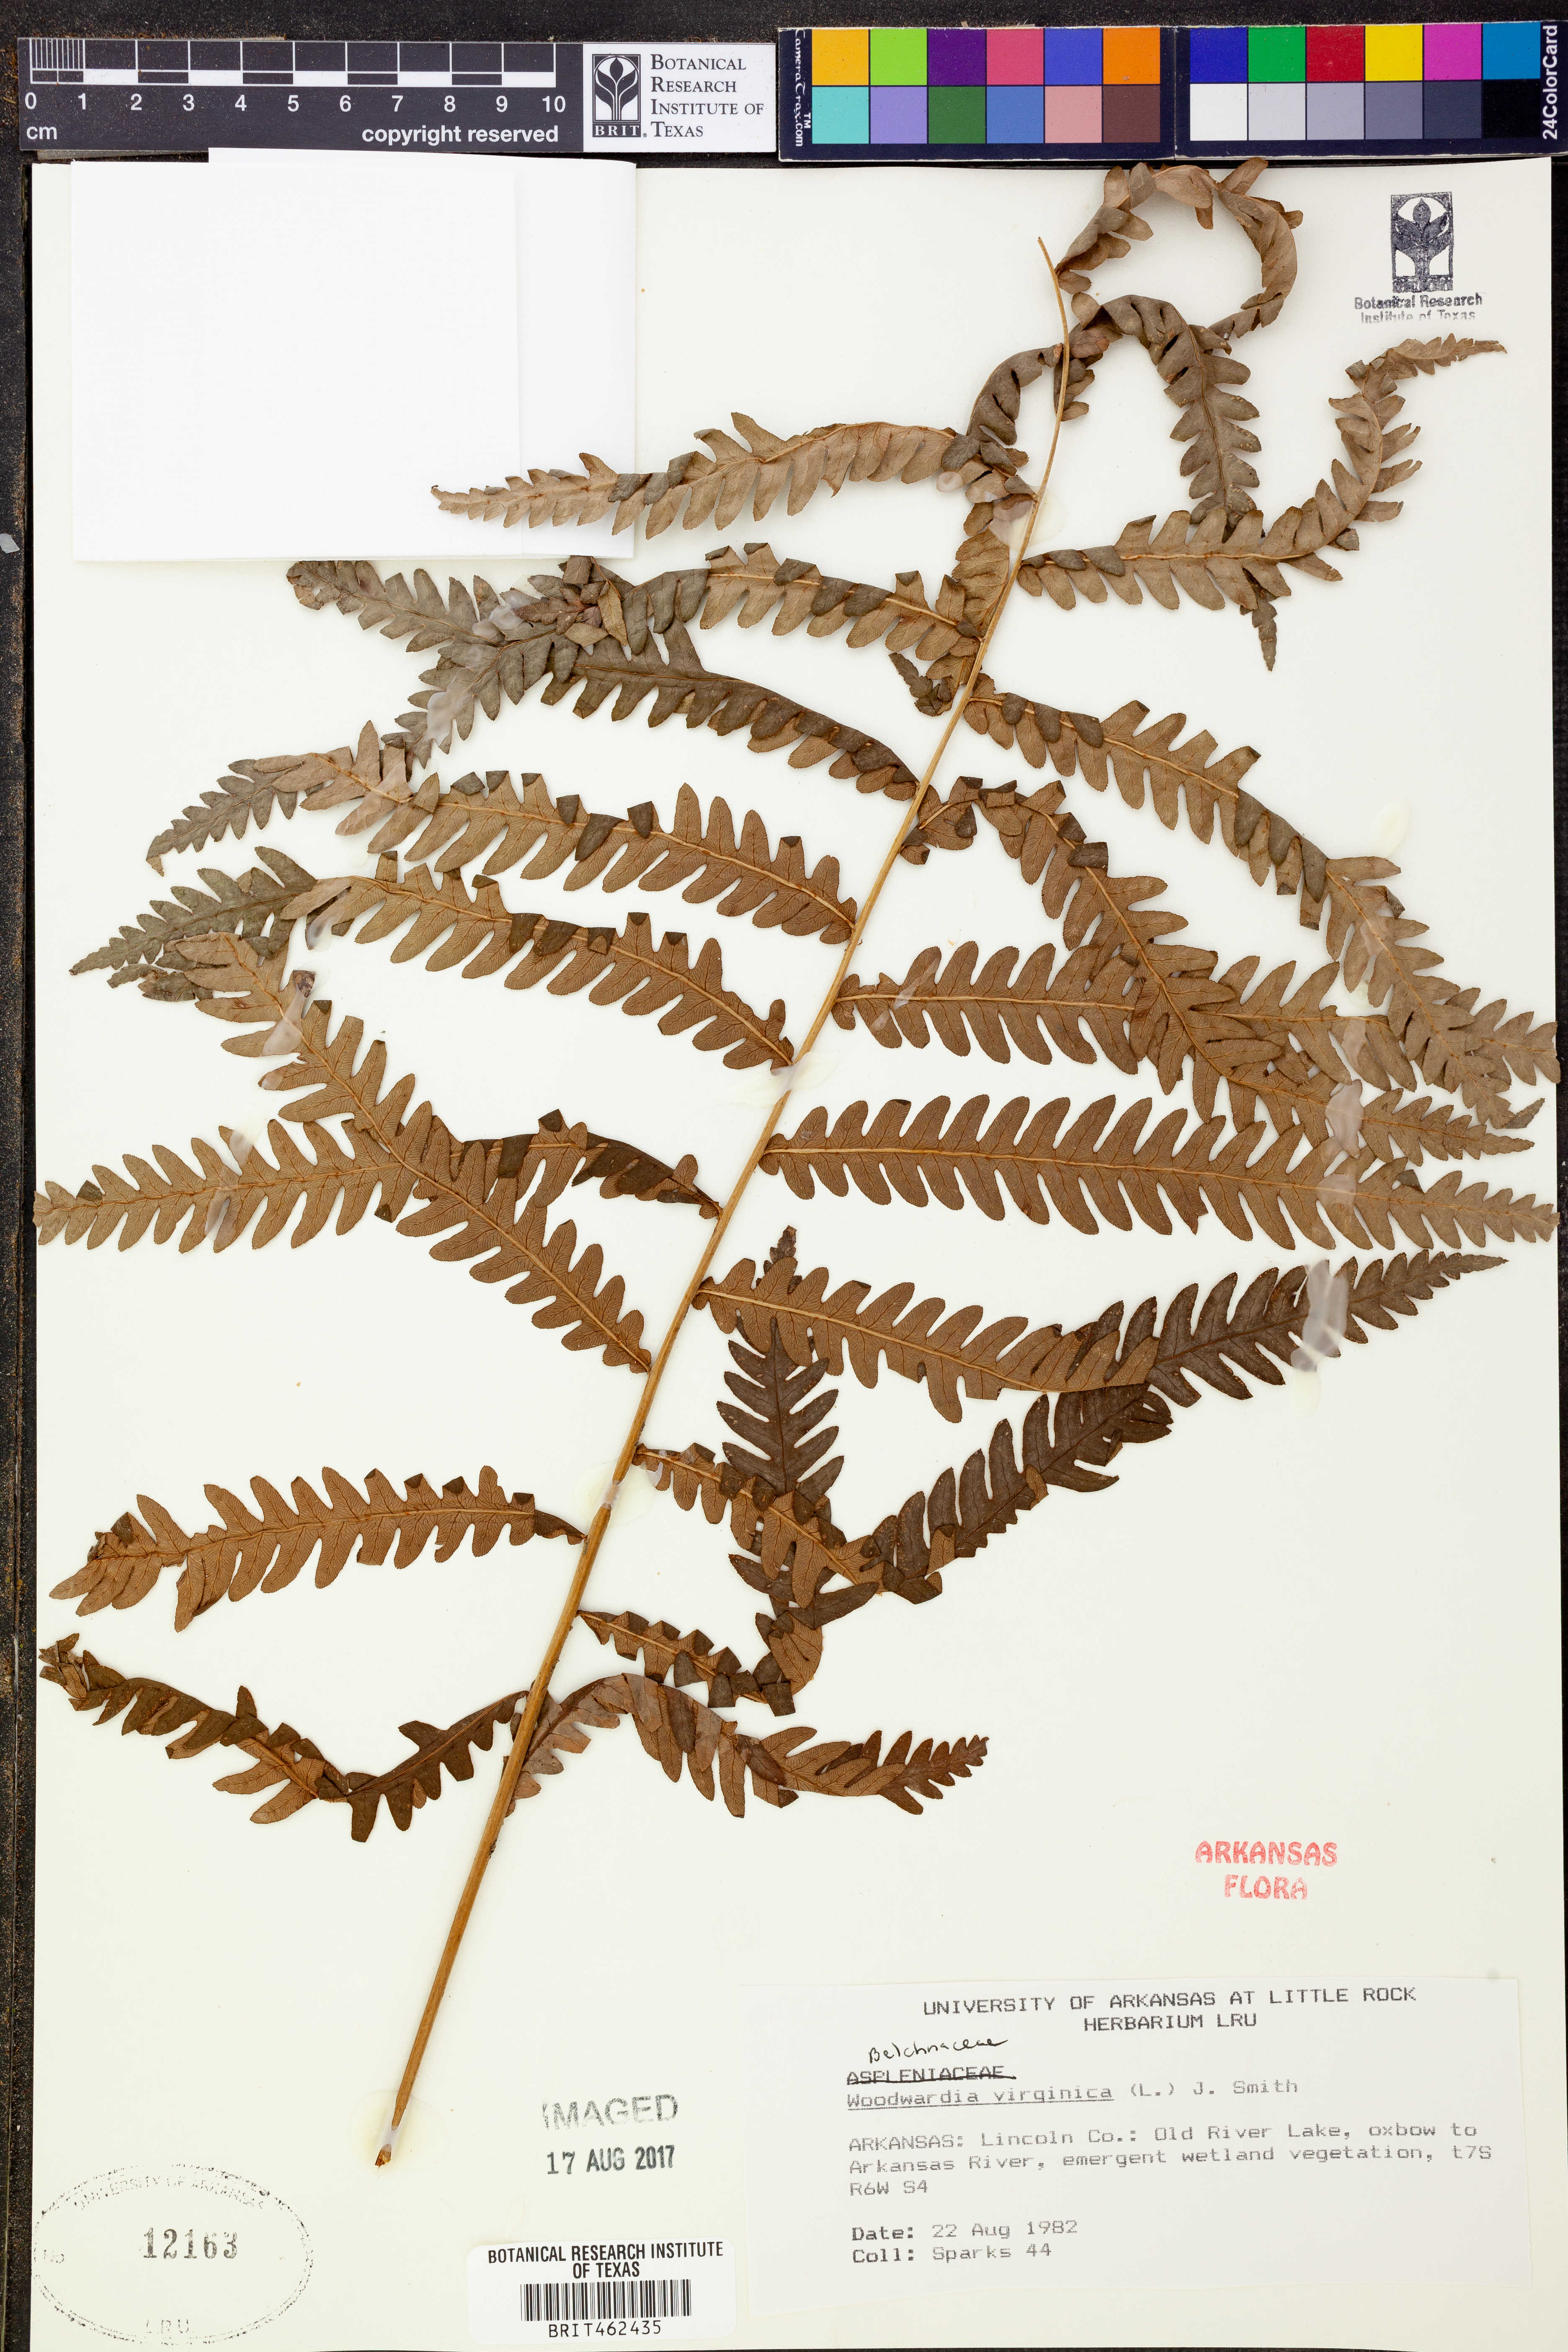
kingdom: Plantae
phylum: Tracheophyta
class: Polypodiopsida
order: Polypodiales
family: Blechnaceae
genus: Anchistea
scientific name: Anchistea virginica
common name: Virginia chain fern
